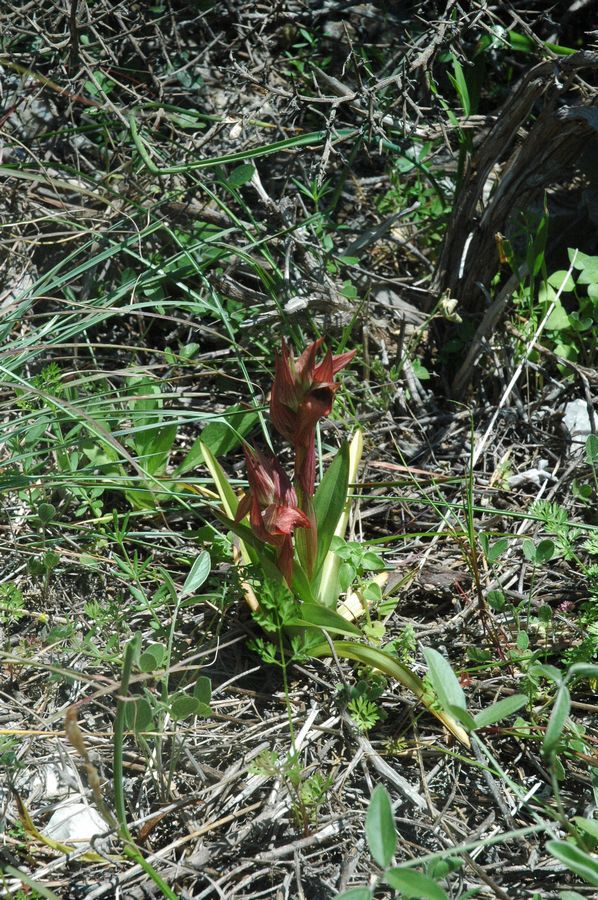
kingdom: Plantae
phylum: Tracheophyta
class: Liliopsida
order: Asparagales
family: Orchidaceae
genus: Serapias
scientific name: Serapias orientalis
